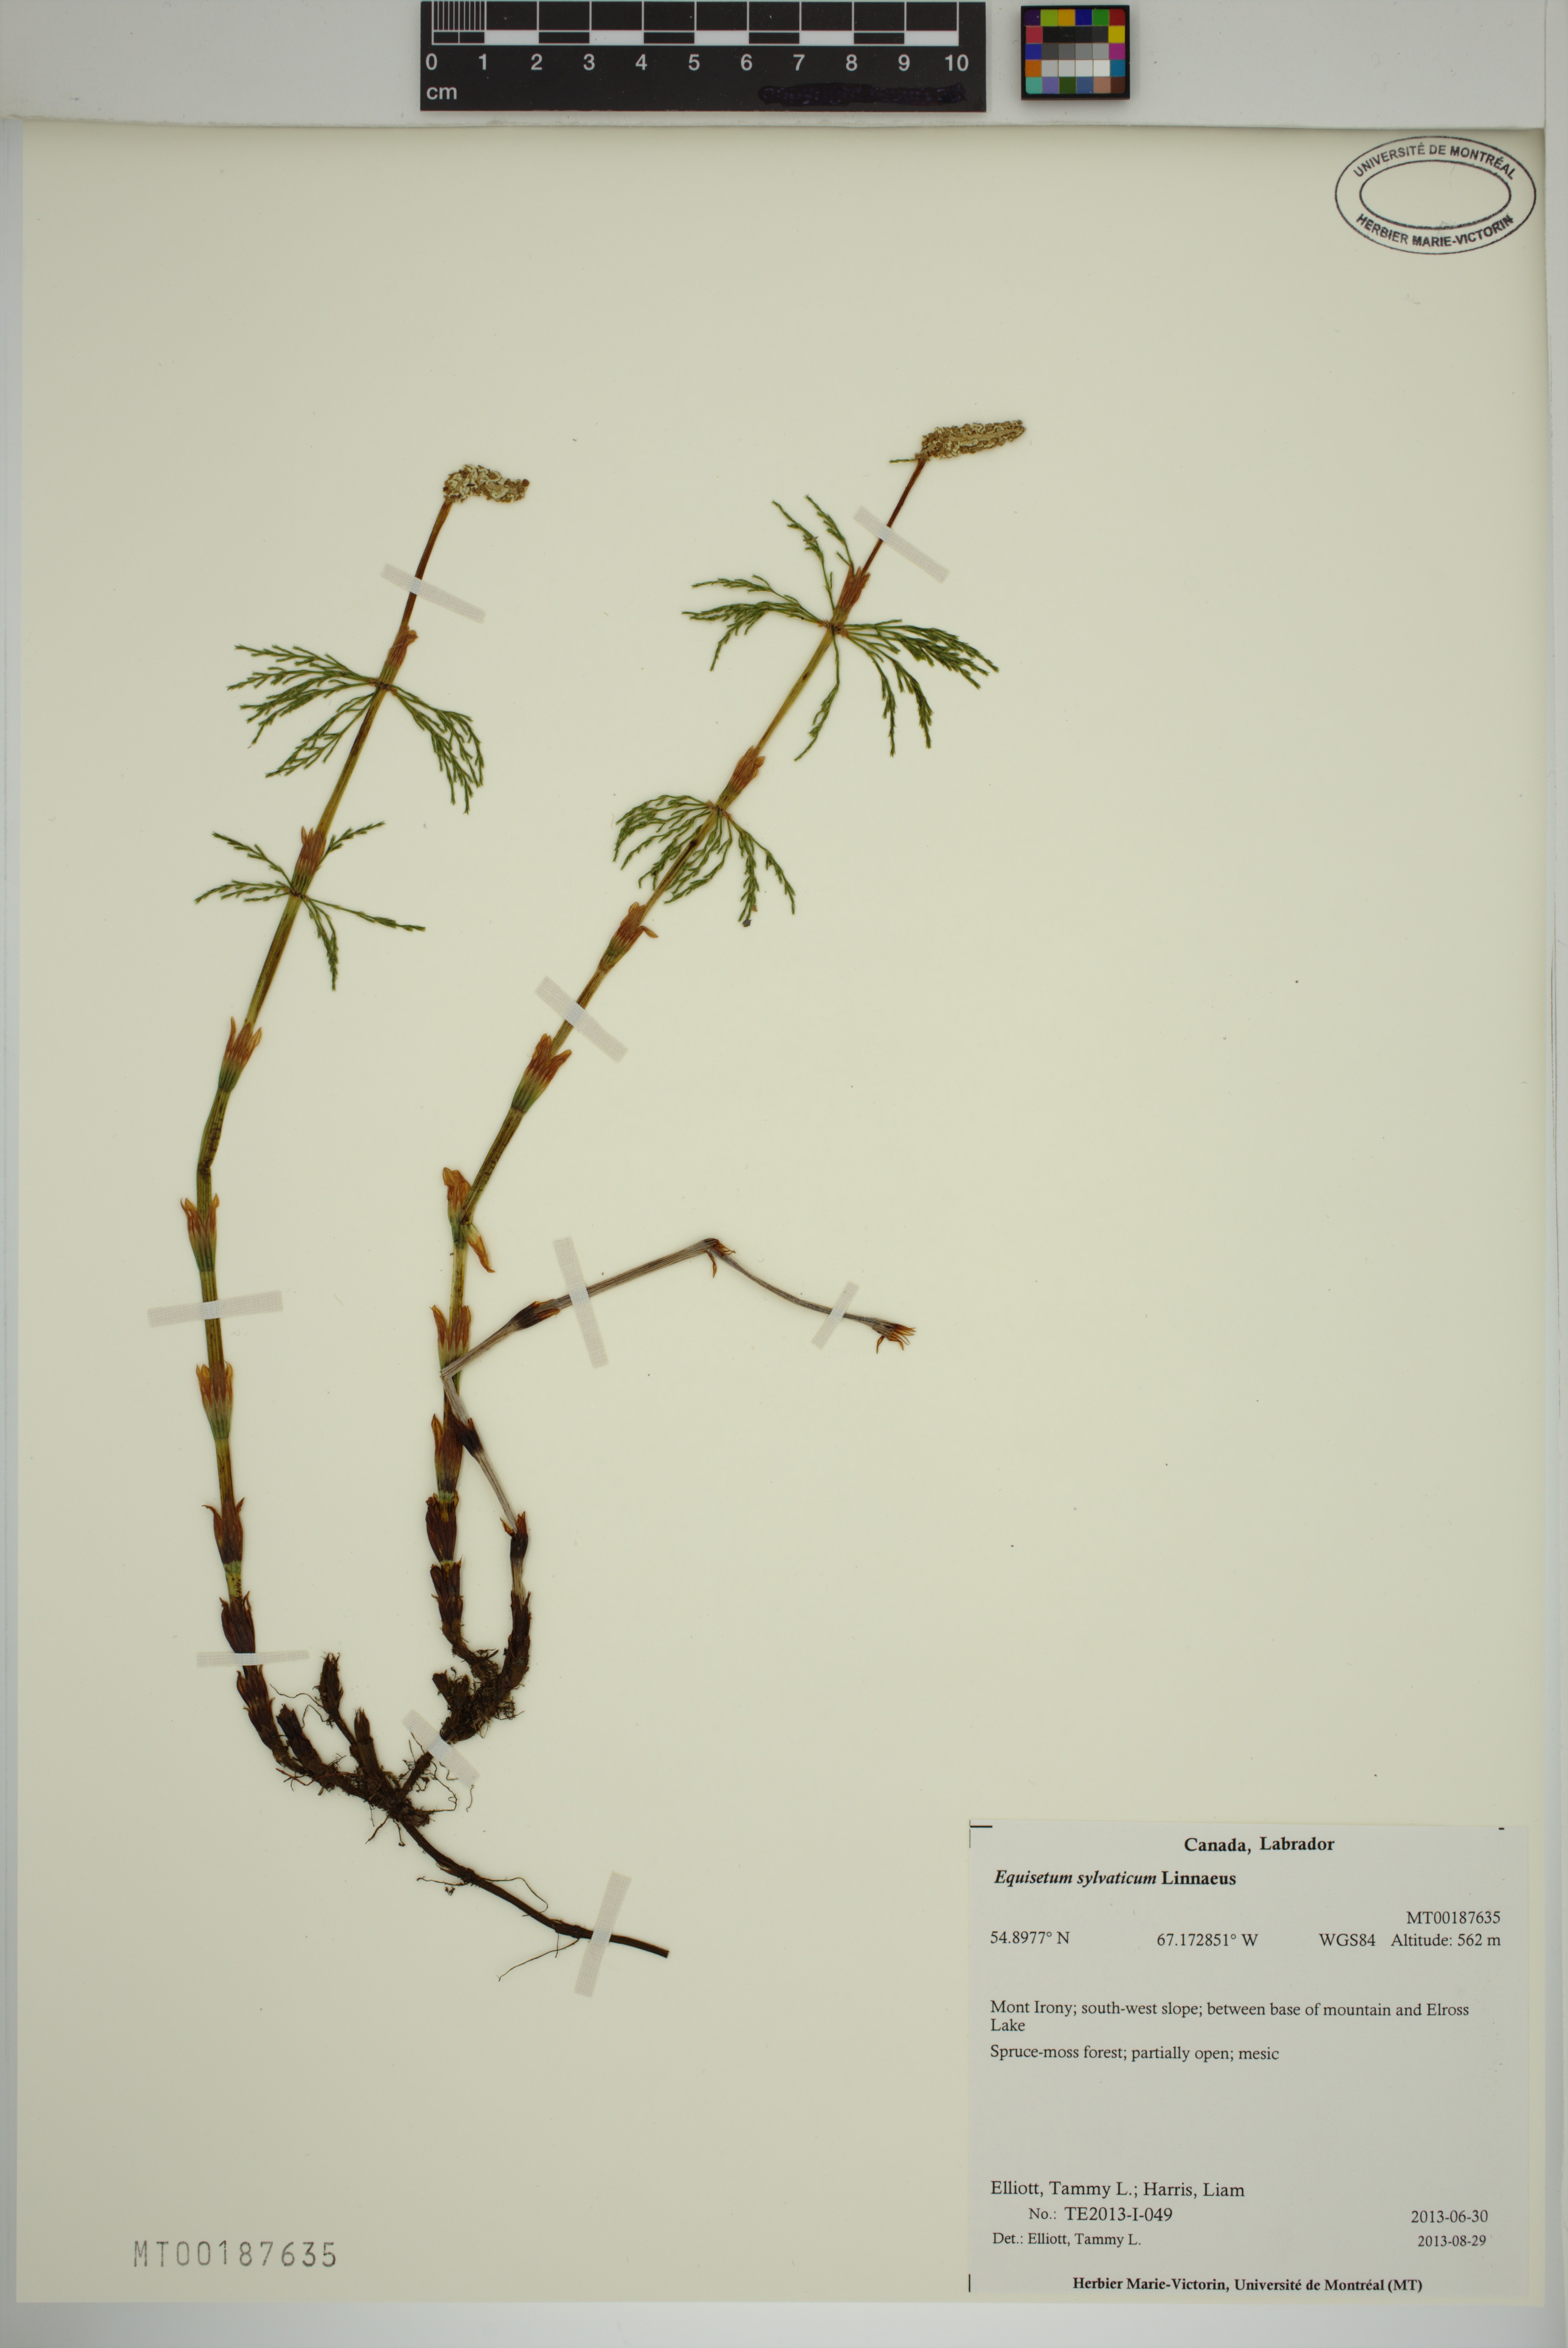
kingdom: Plantae
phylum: Tracheophyta
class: Polypodiopsida
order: Equisetales
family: Equisetaceae
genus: Equisetum
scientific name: Equisetum sylvaticum
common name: Wood horsetail
